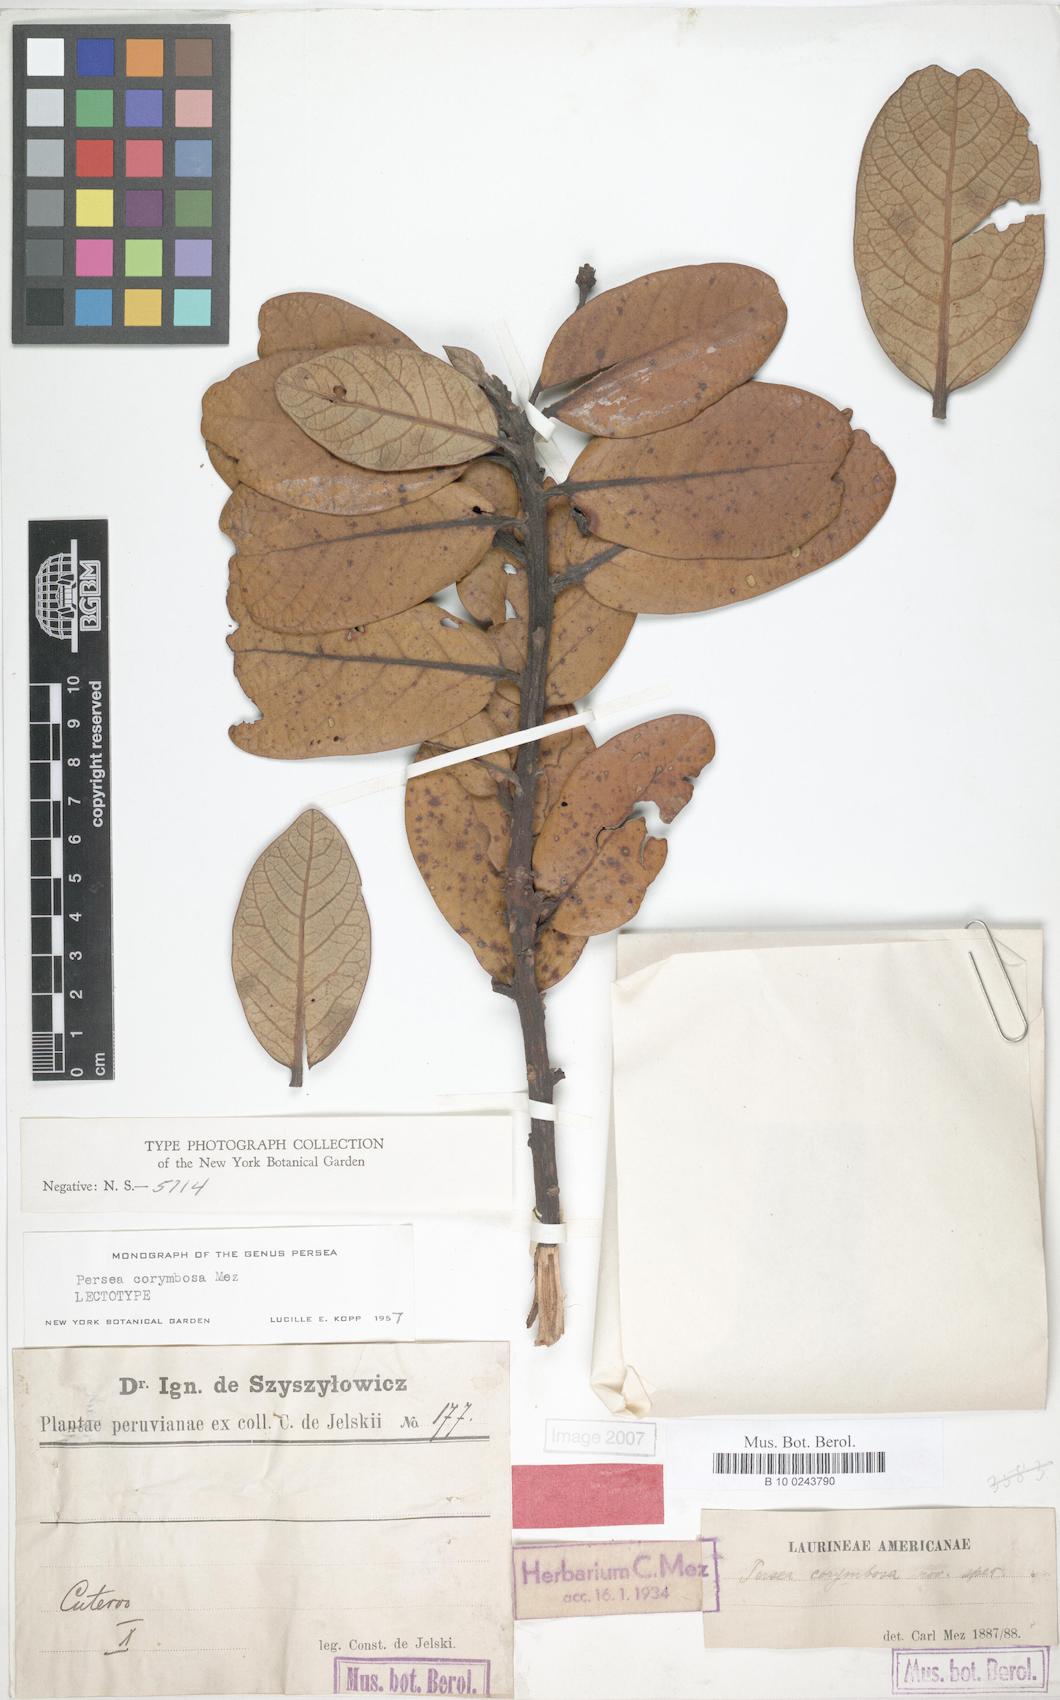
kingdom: Plantae
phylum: Tracheophyta
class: Magnoliopsida
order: Laurales
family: Lauraceae
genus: Persea
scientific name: Persea corymbosa
